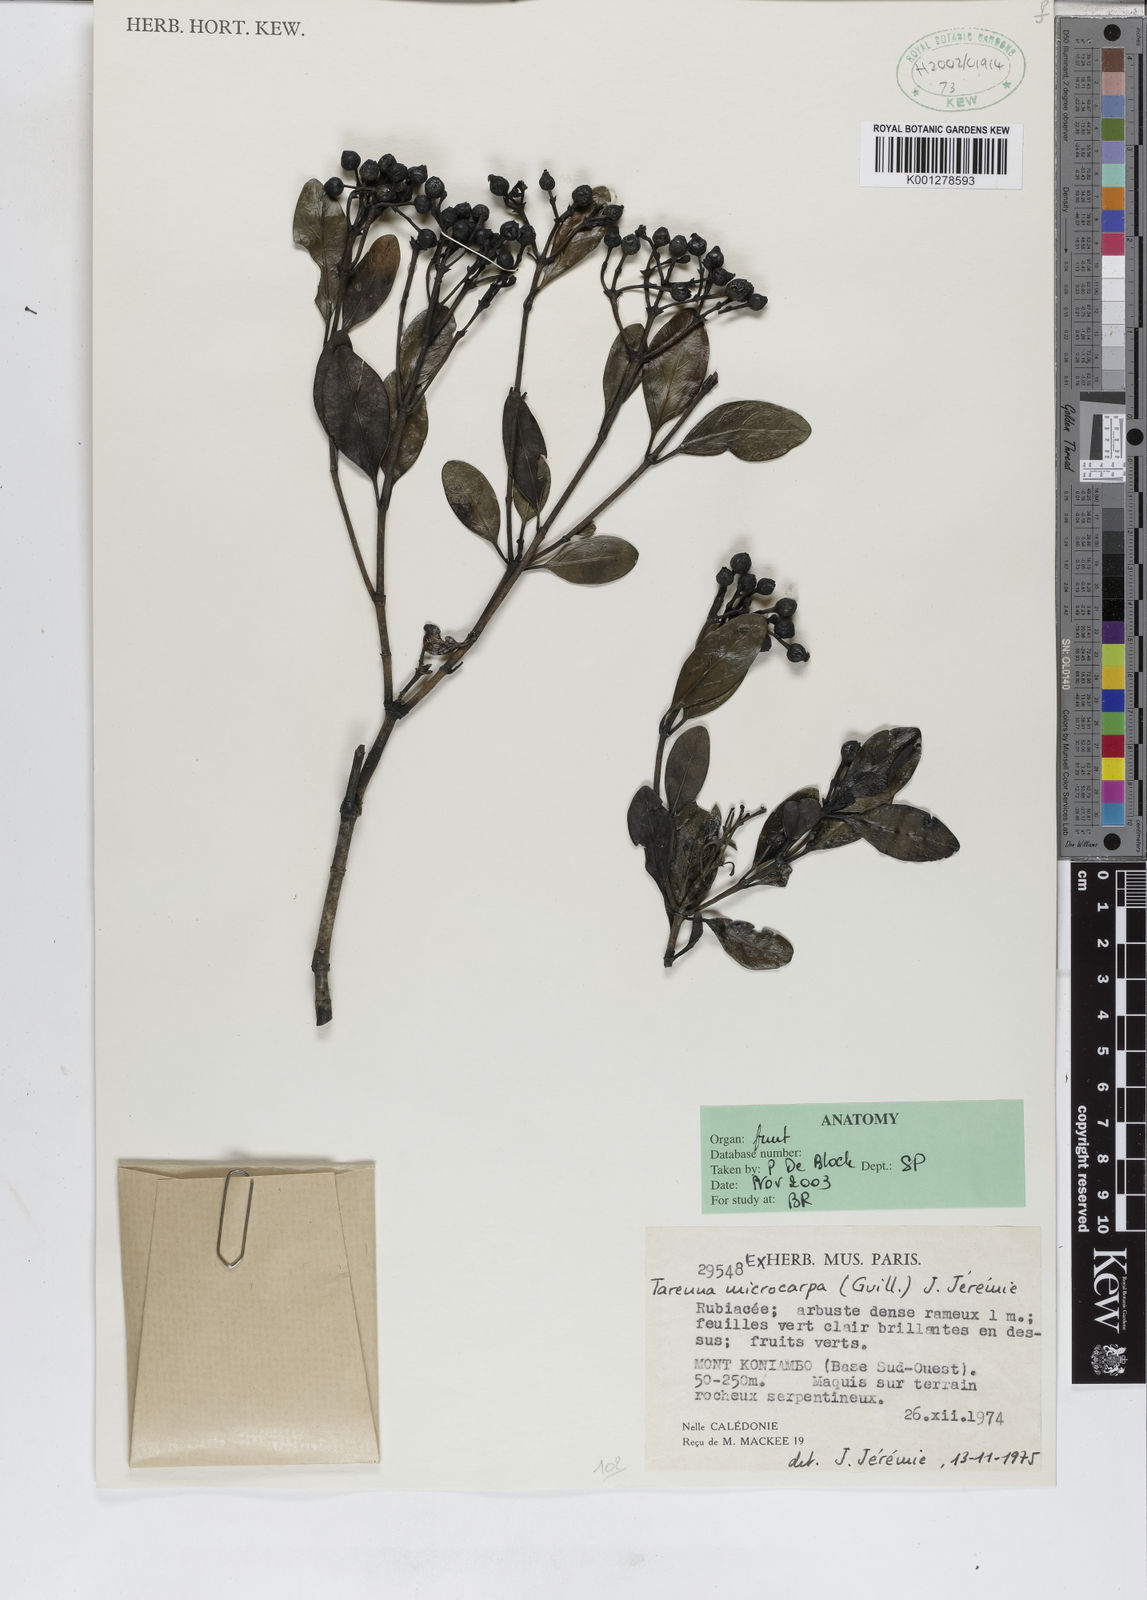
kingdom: Plantae
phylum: Tracheophyta
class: Magnoliopsida
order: Gentianales
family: Rubiaceae
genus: Tarenna
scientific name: Tarenna
